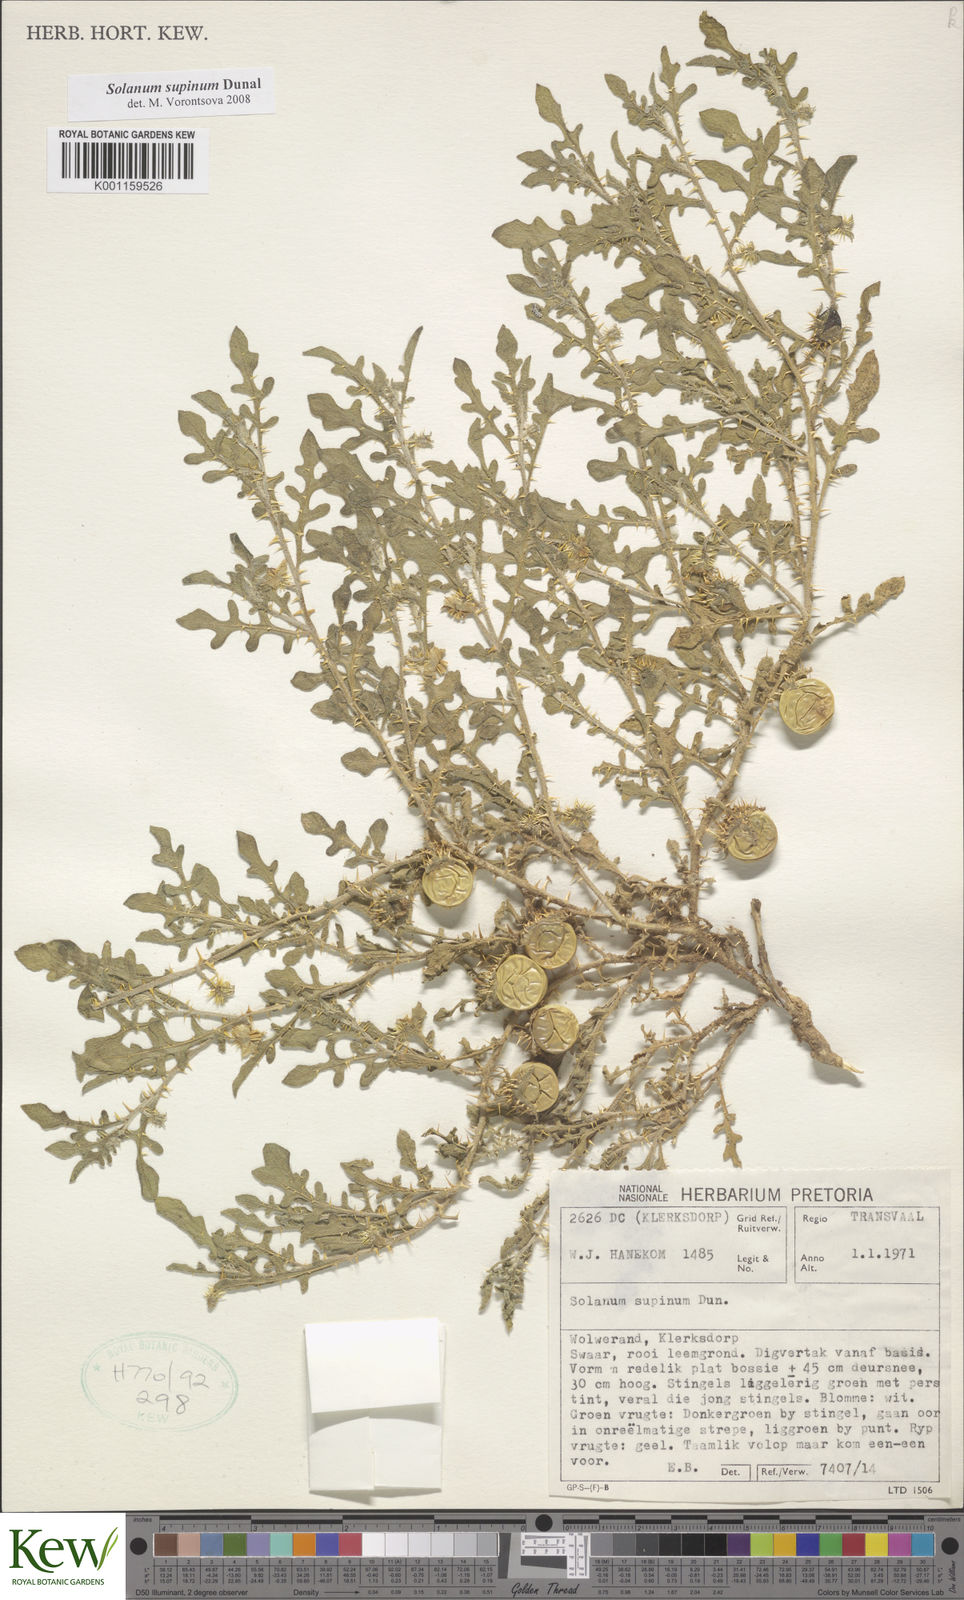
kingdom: Plantae
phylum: Tracheophyta
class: Magnoliopsida
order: Solanales
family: Solanaceae
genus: Solanum
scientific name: Solanum supinum
